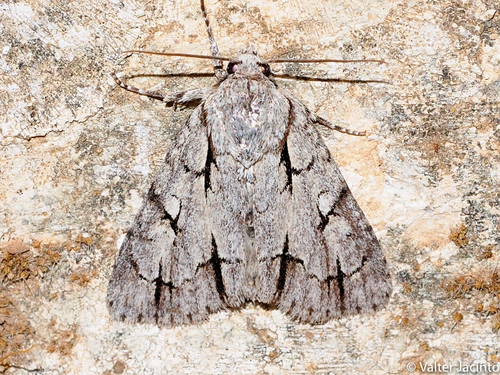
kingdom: Animalia
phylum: Arthropoda
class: Insecta
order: Lepidoptera
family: Noctuidae
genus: Acronicta
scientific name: Acronicta psi
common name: Grey dagger
